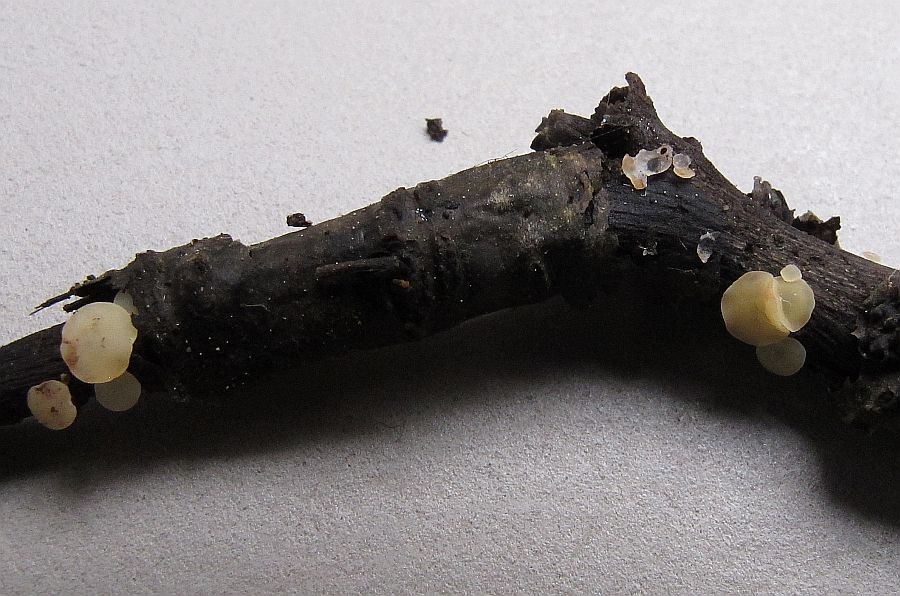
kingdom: Fungi
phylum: Ascomycota
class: Leotiomycetes
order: Helotiales
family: Helotiaceae
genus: Hymenoscyphus
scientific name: Hymenoscyphus imberbis
